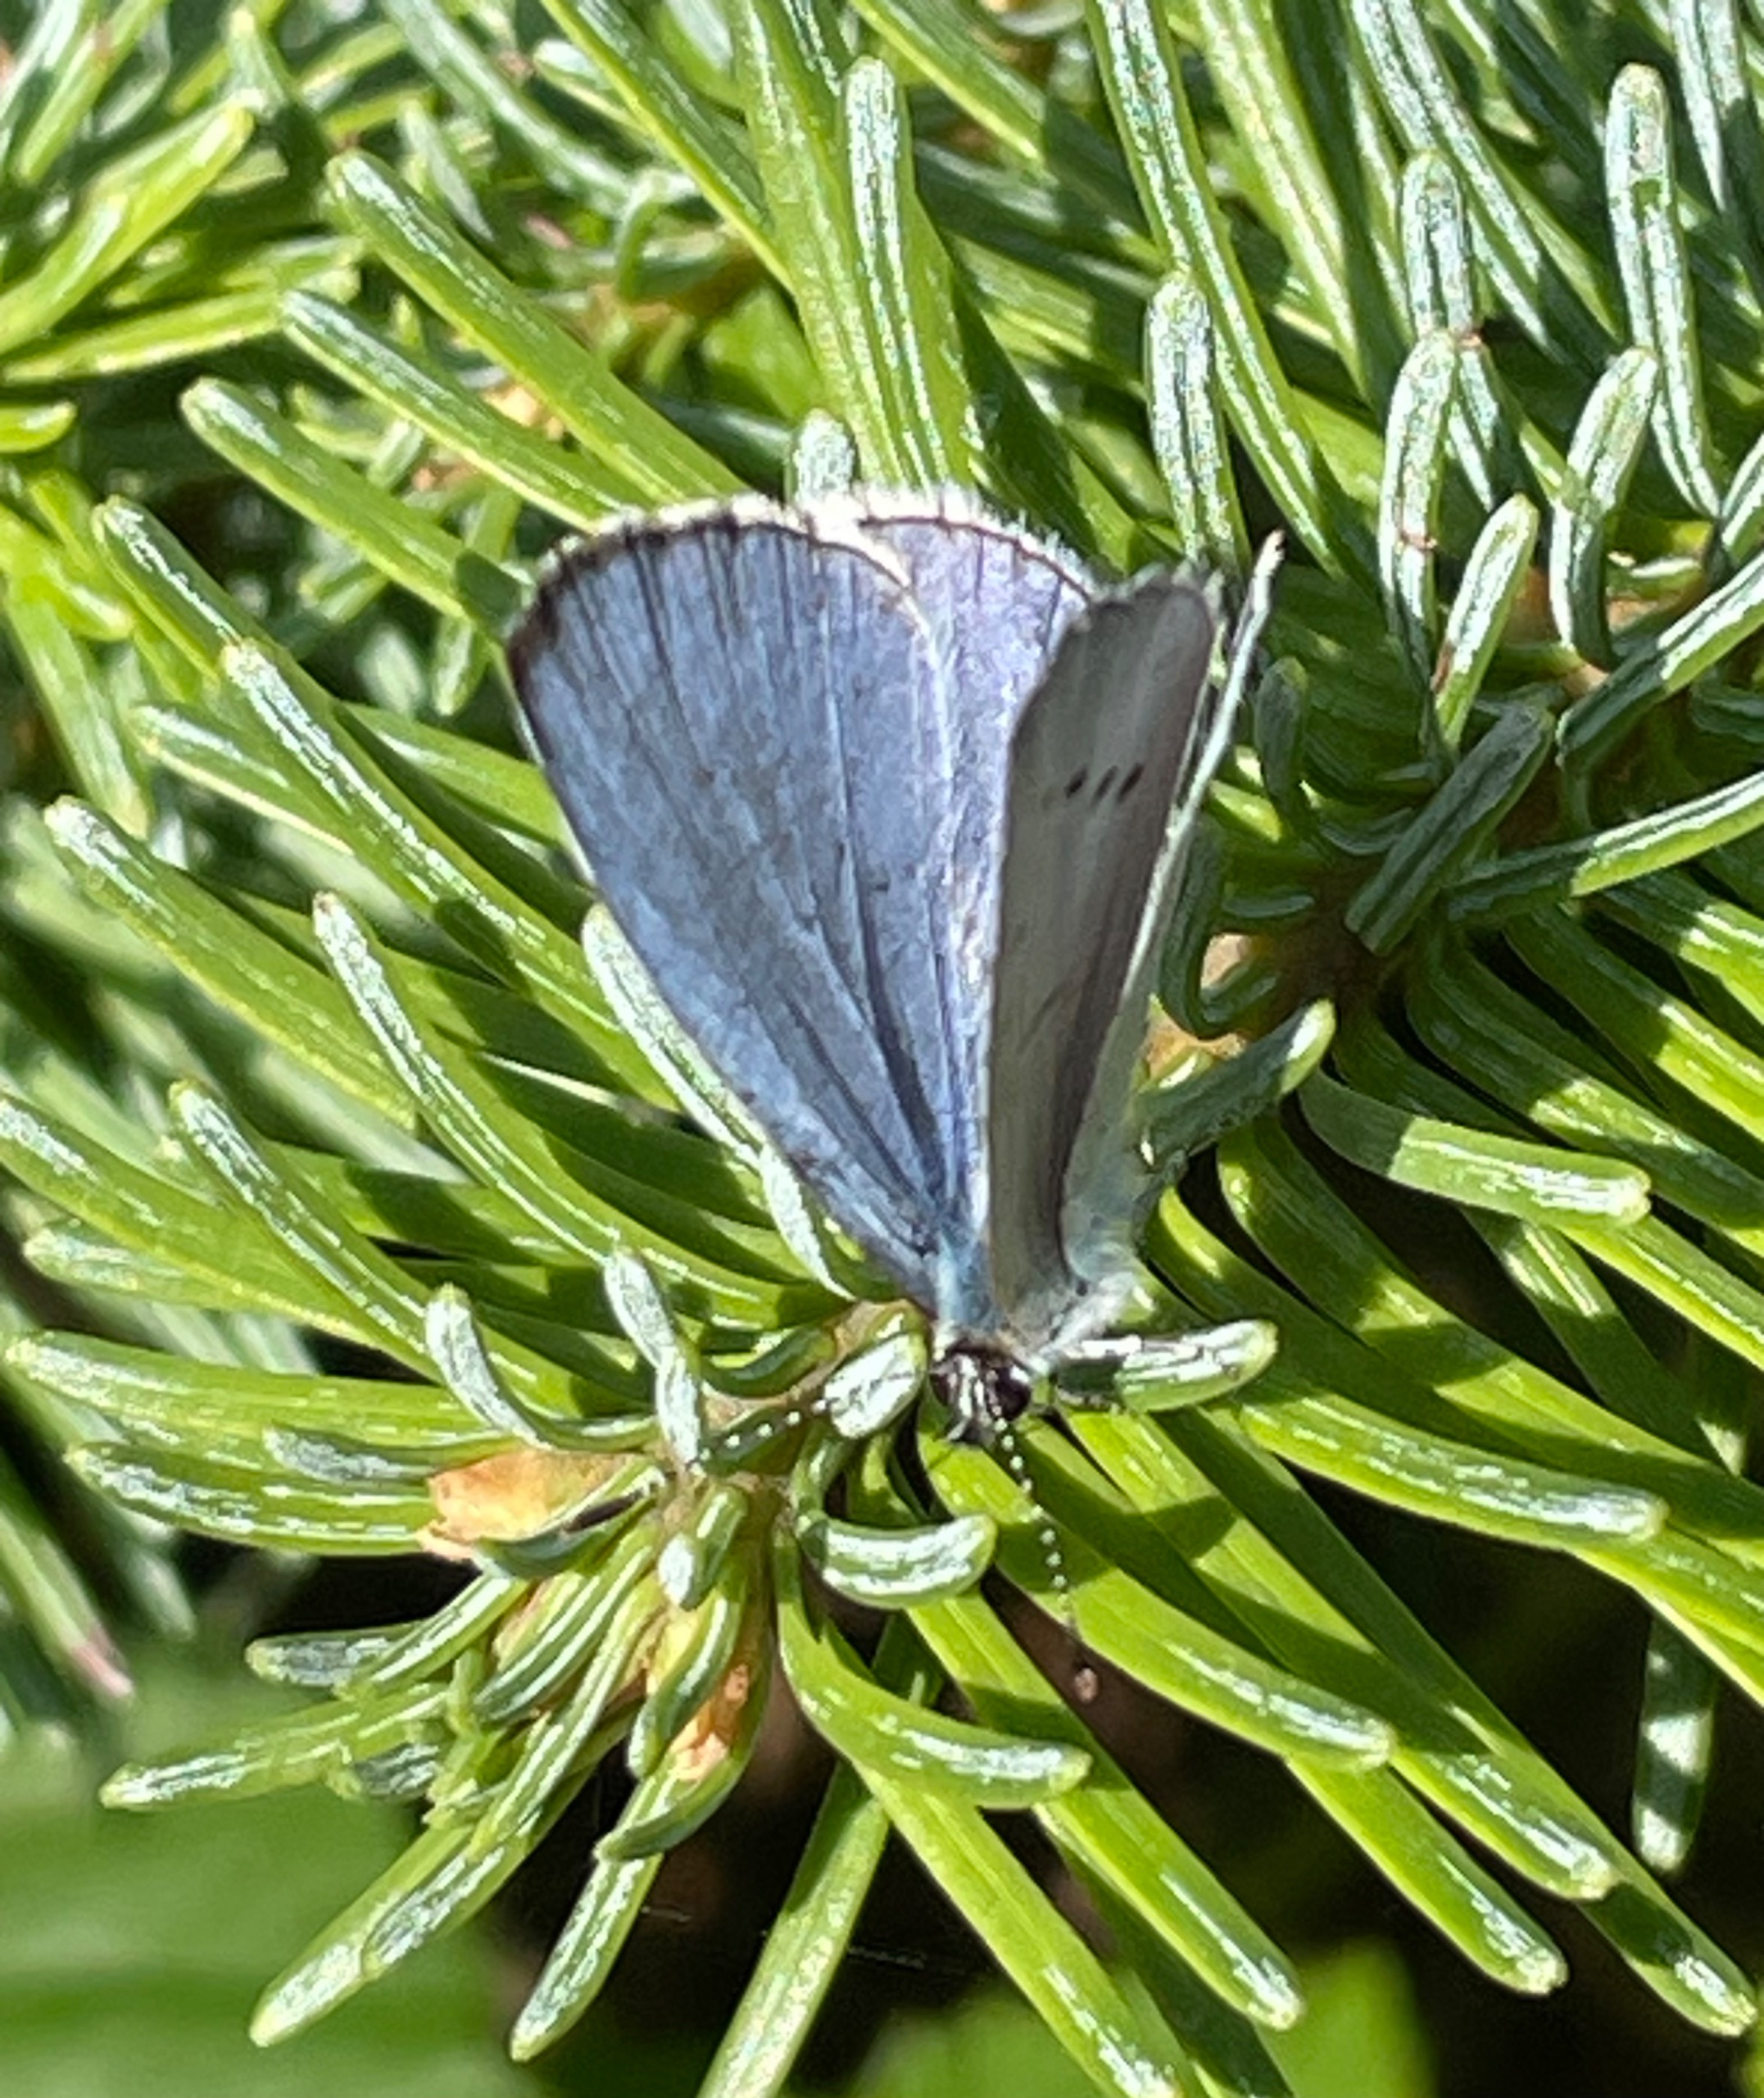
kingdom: Animalia
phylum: Arthropoda
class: Insecta
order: Lepidoptera
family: Lycaenidae
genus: Celastrina
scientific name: Celastrina argiolus
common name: Skovblåfugl
